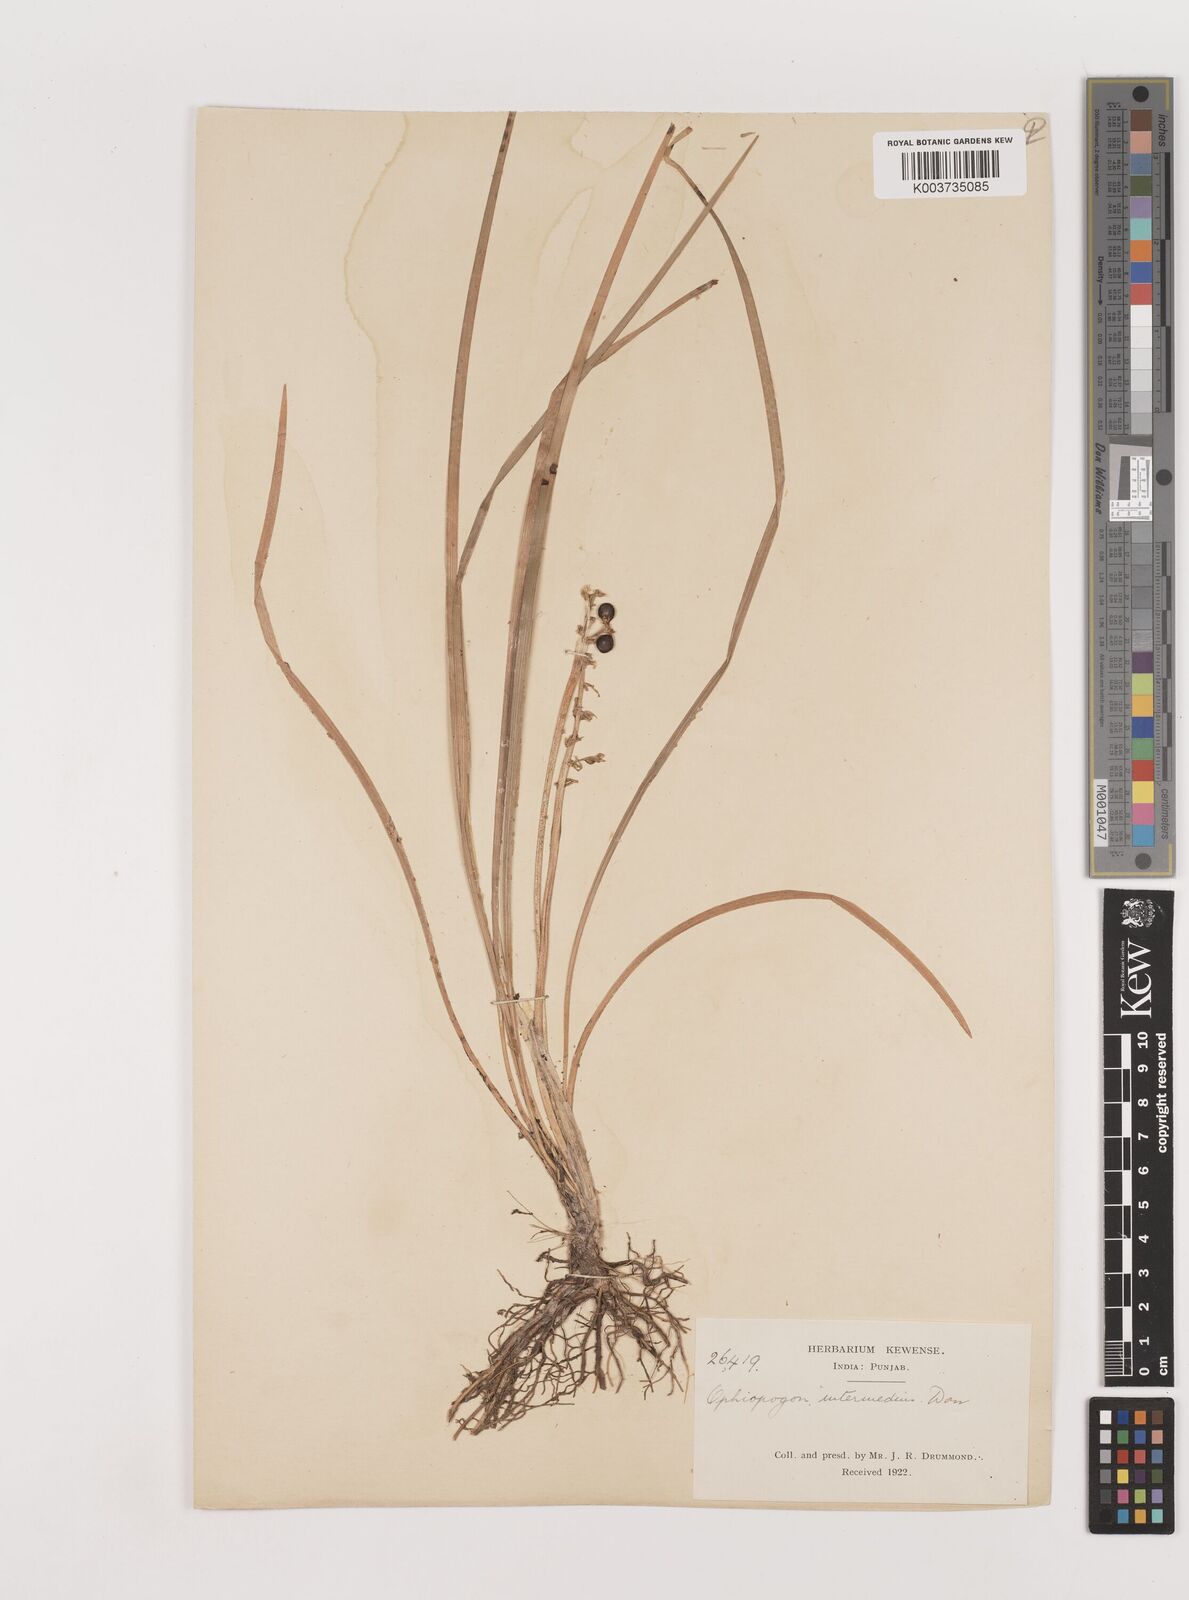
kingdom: Plantae
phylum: Tracheophyta
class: Liliopsida
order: Asparagales
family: Asparagaceae
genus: Ophiopogon
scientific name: Ophiopogon
